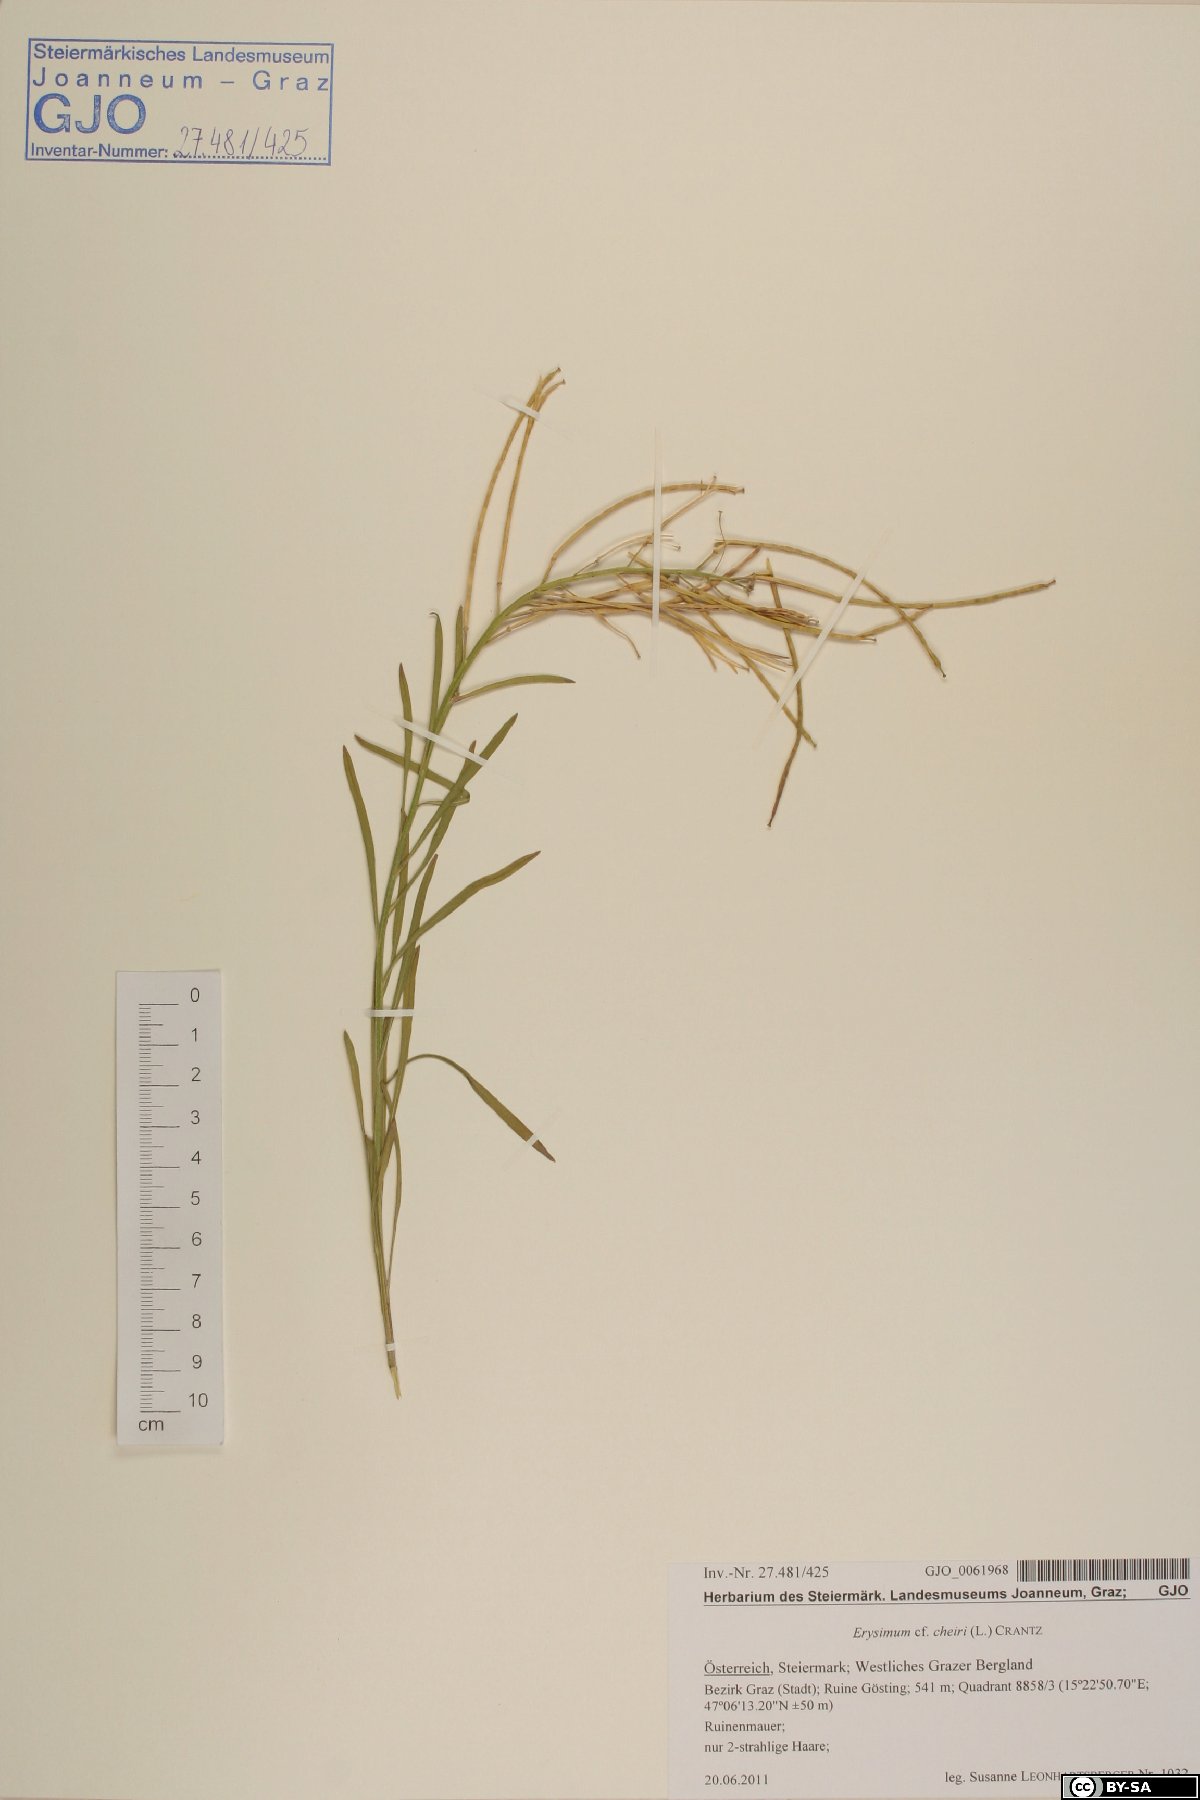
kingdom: Plantae
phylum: Tracheophyta
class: Magnoliopsida
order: Brassicales
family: Brassicaceae
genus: Erysimum
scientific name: Erysimum cheiri
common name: Wallflower
